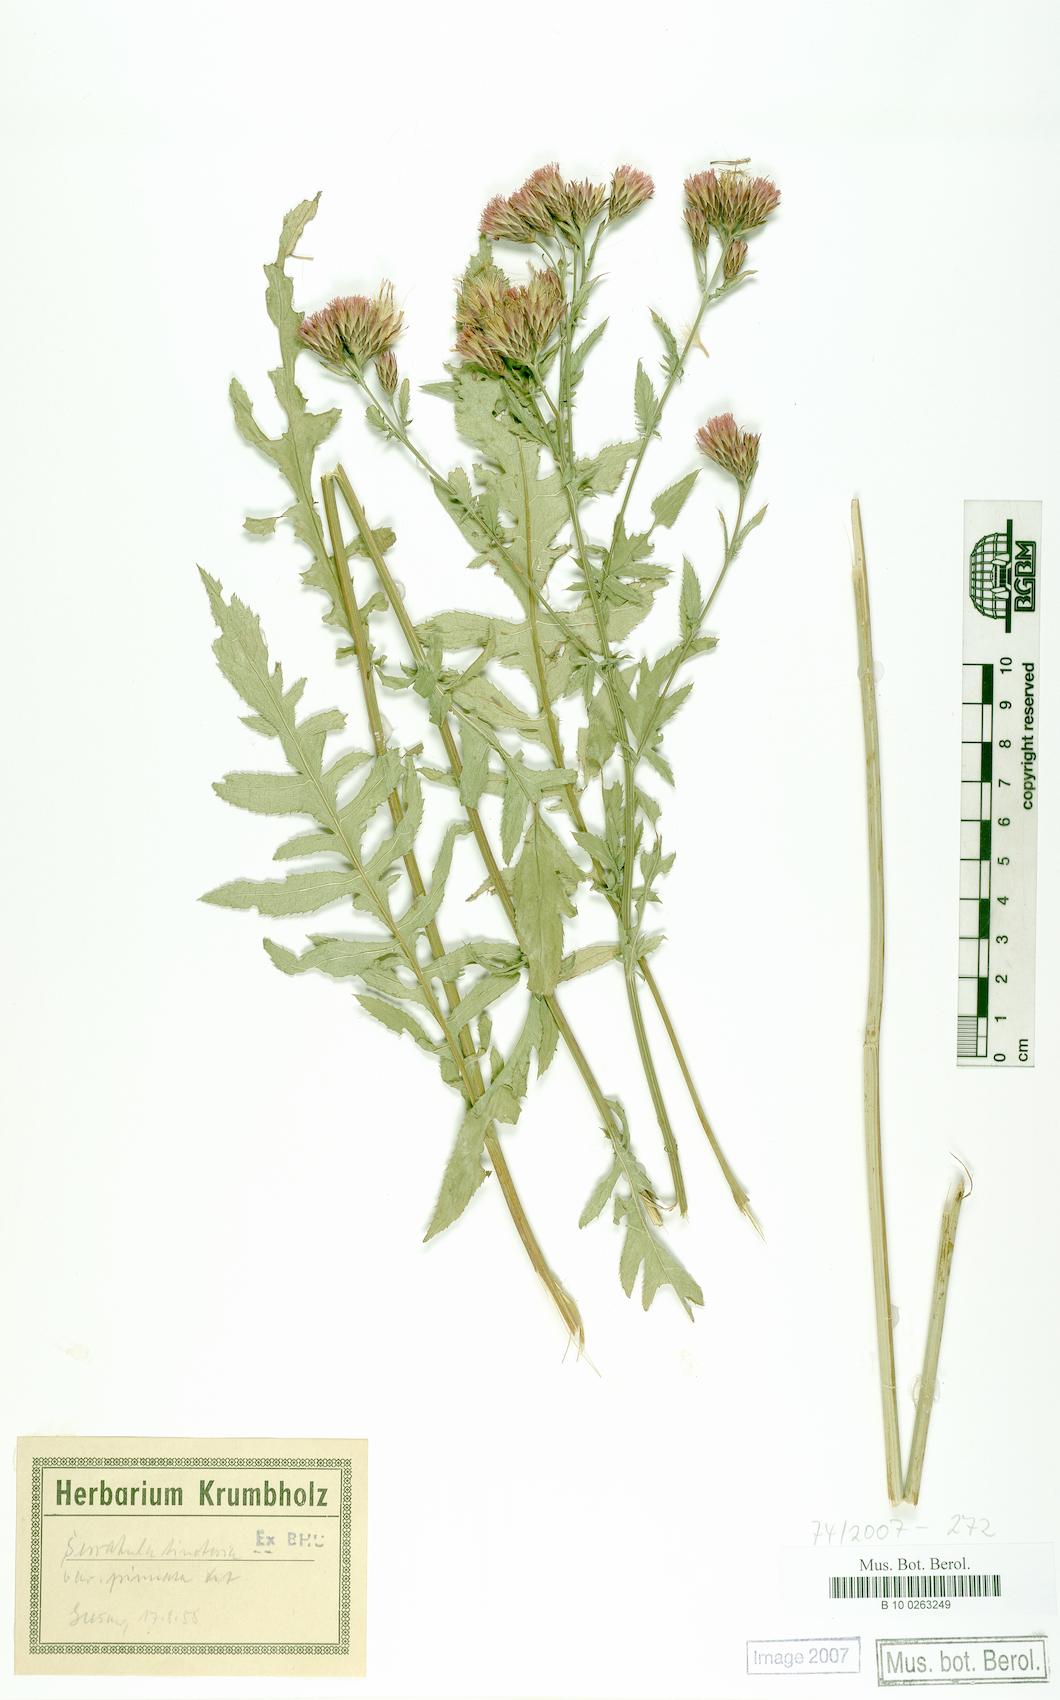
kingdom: Plantae
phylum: Tracheophyta
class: Magnoliopsida
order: Asterales
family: Asteraceae
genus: Serratula
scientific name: Serratula tinctoria
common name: Saw-wort
